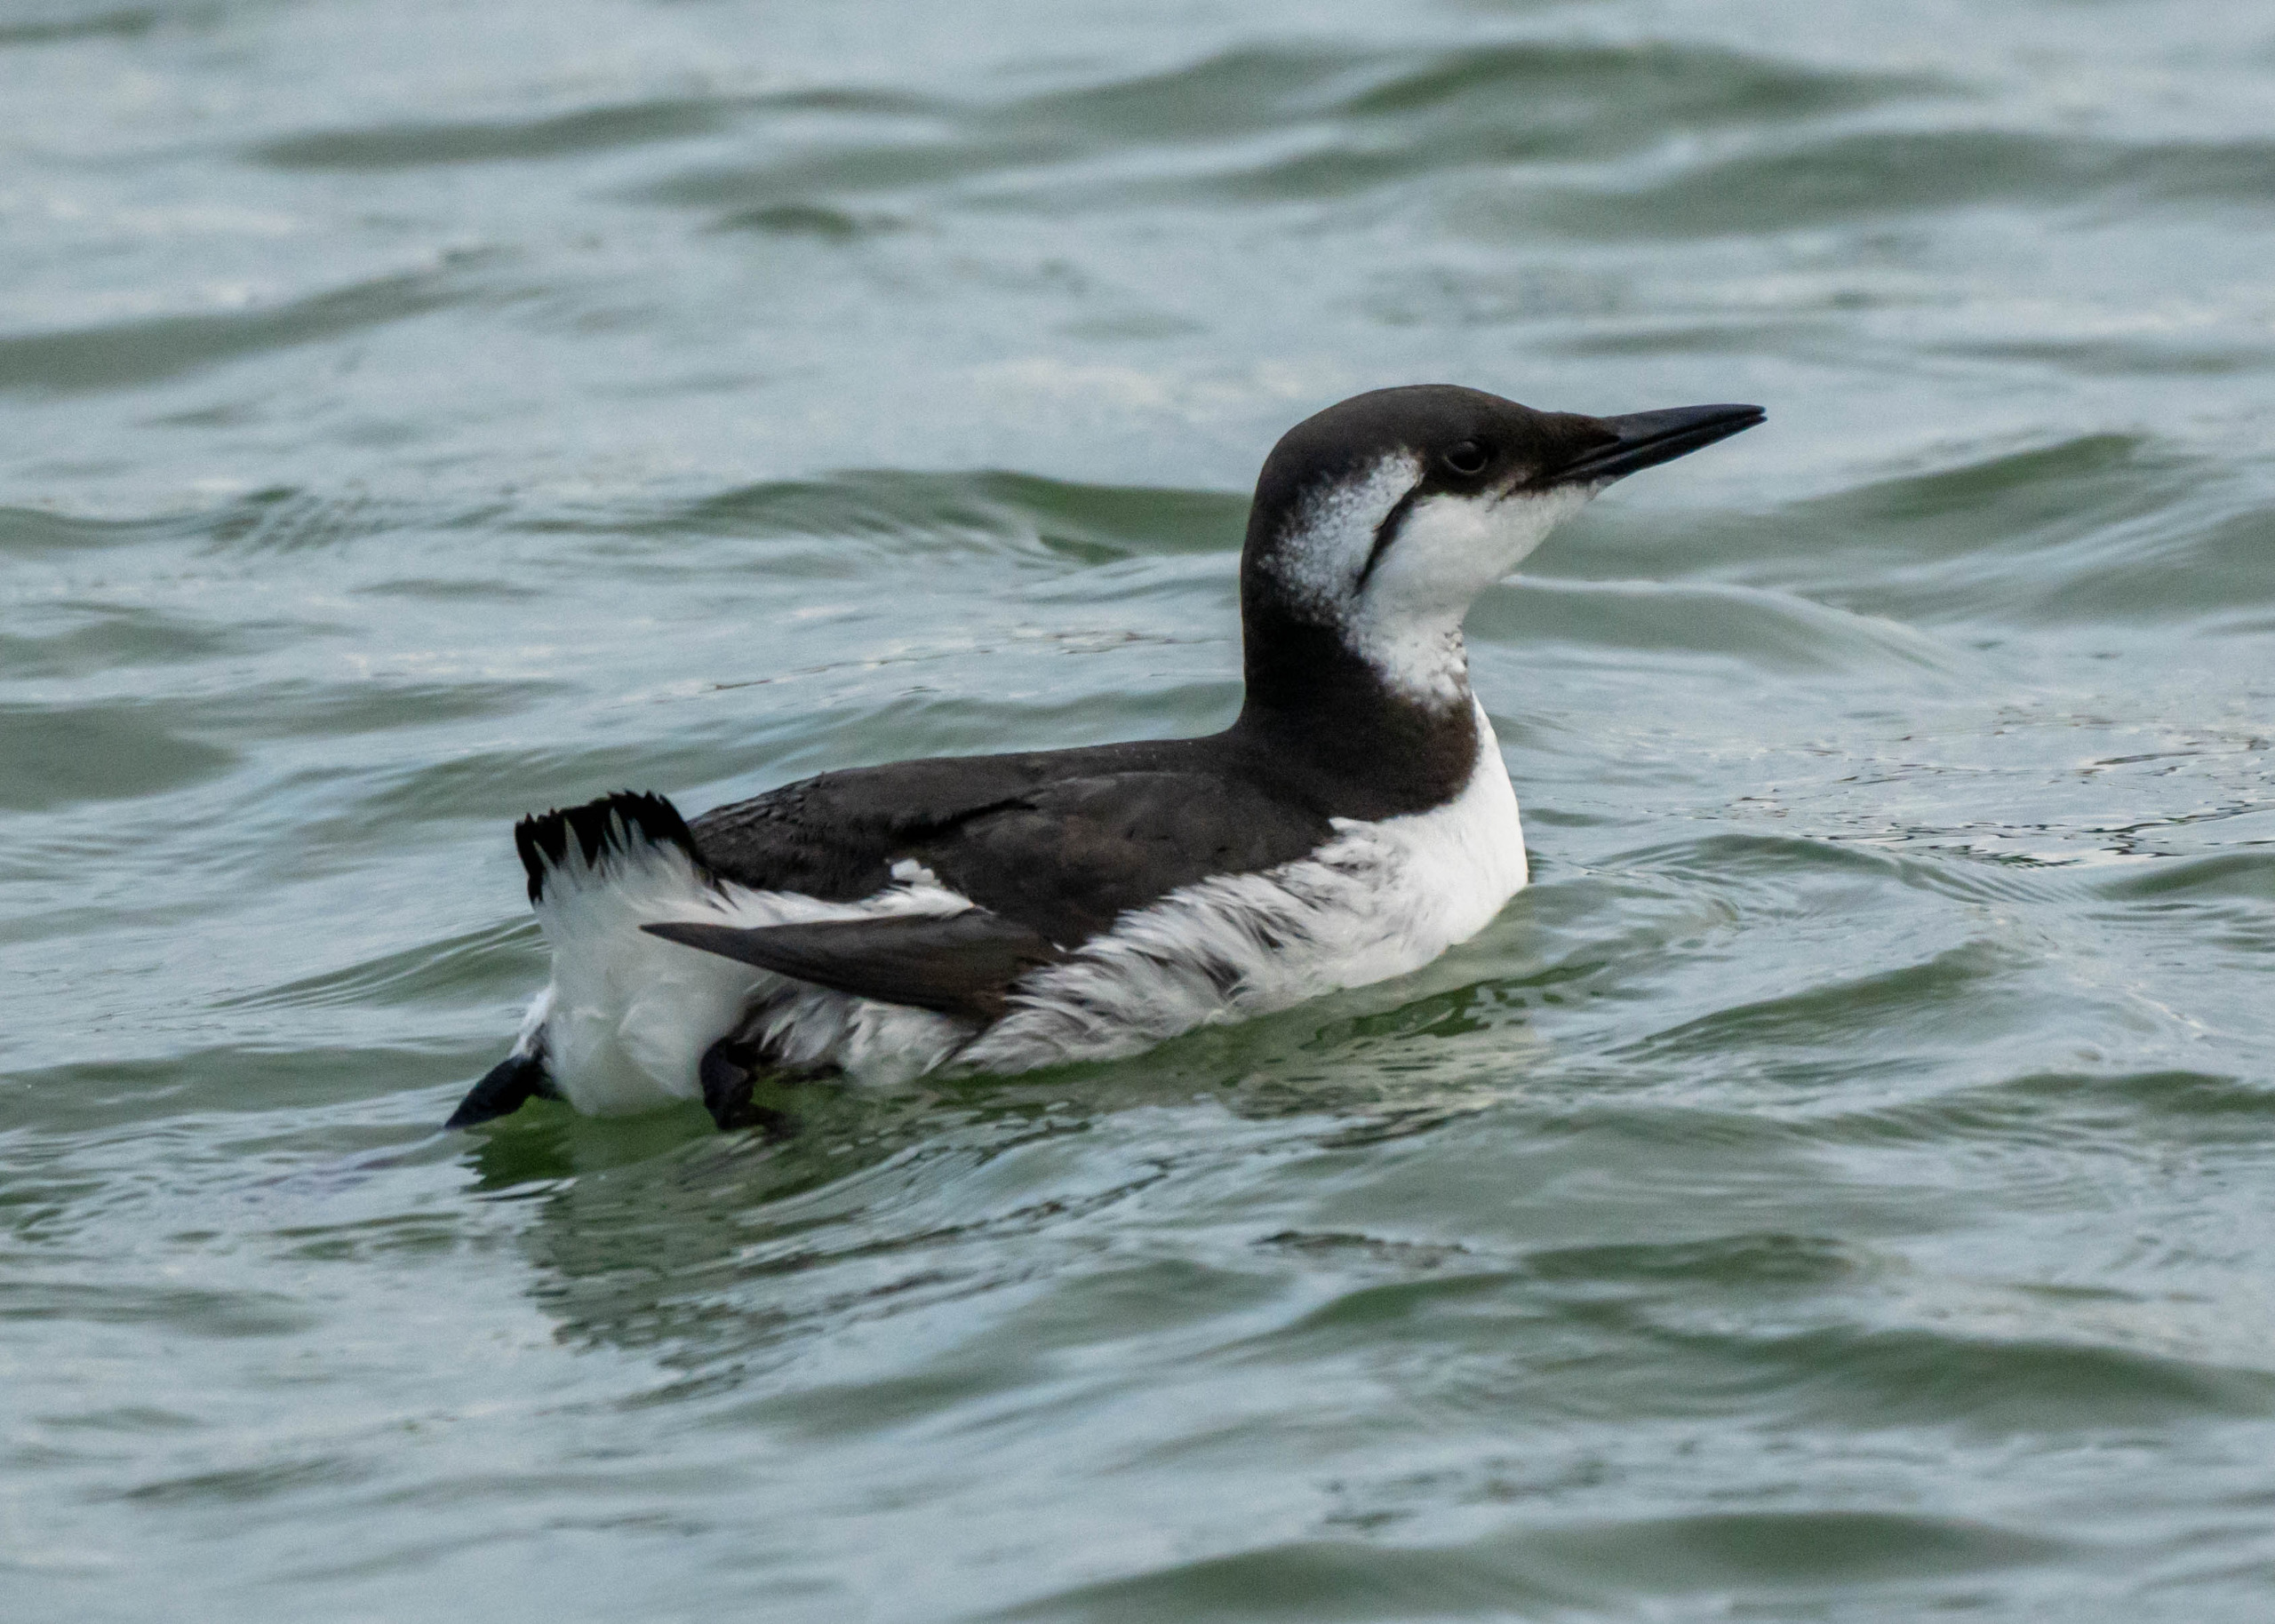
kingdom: Animalia
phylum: Chordata
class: Aves
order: Charadriiformes
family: Alcidae
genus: Uria
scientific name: Uria aalge
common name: Lomvie
